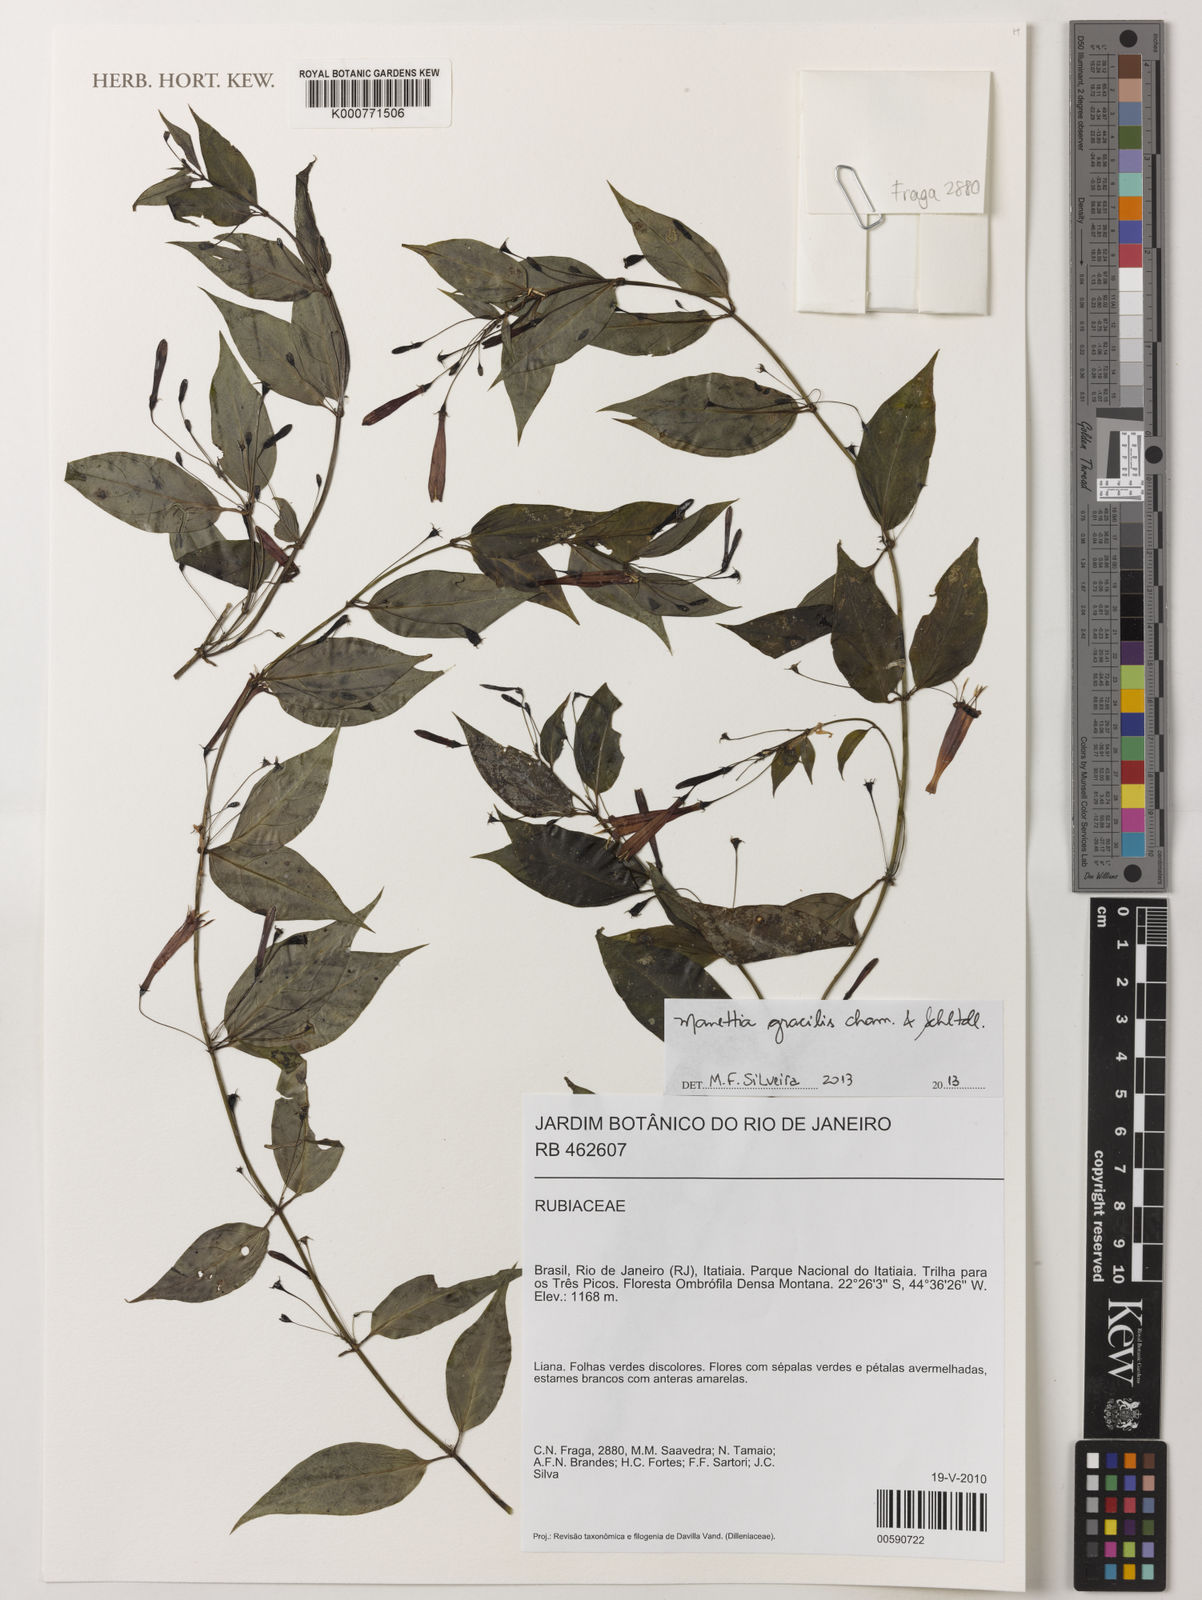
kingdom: Plantae
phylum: Tracheophyta
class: Magnoliopsida
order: Gentianales
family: Rubiaceae
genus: Manettia
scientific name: Manettia gracilis
